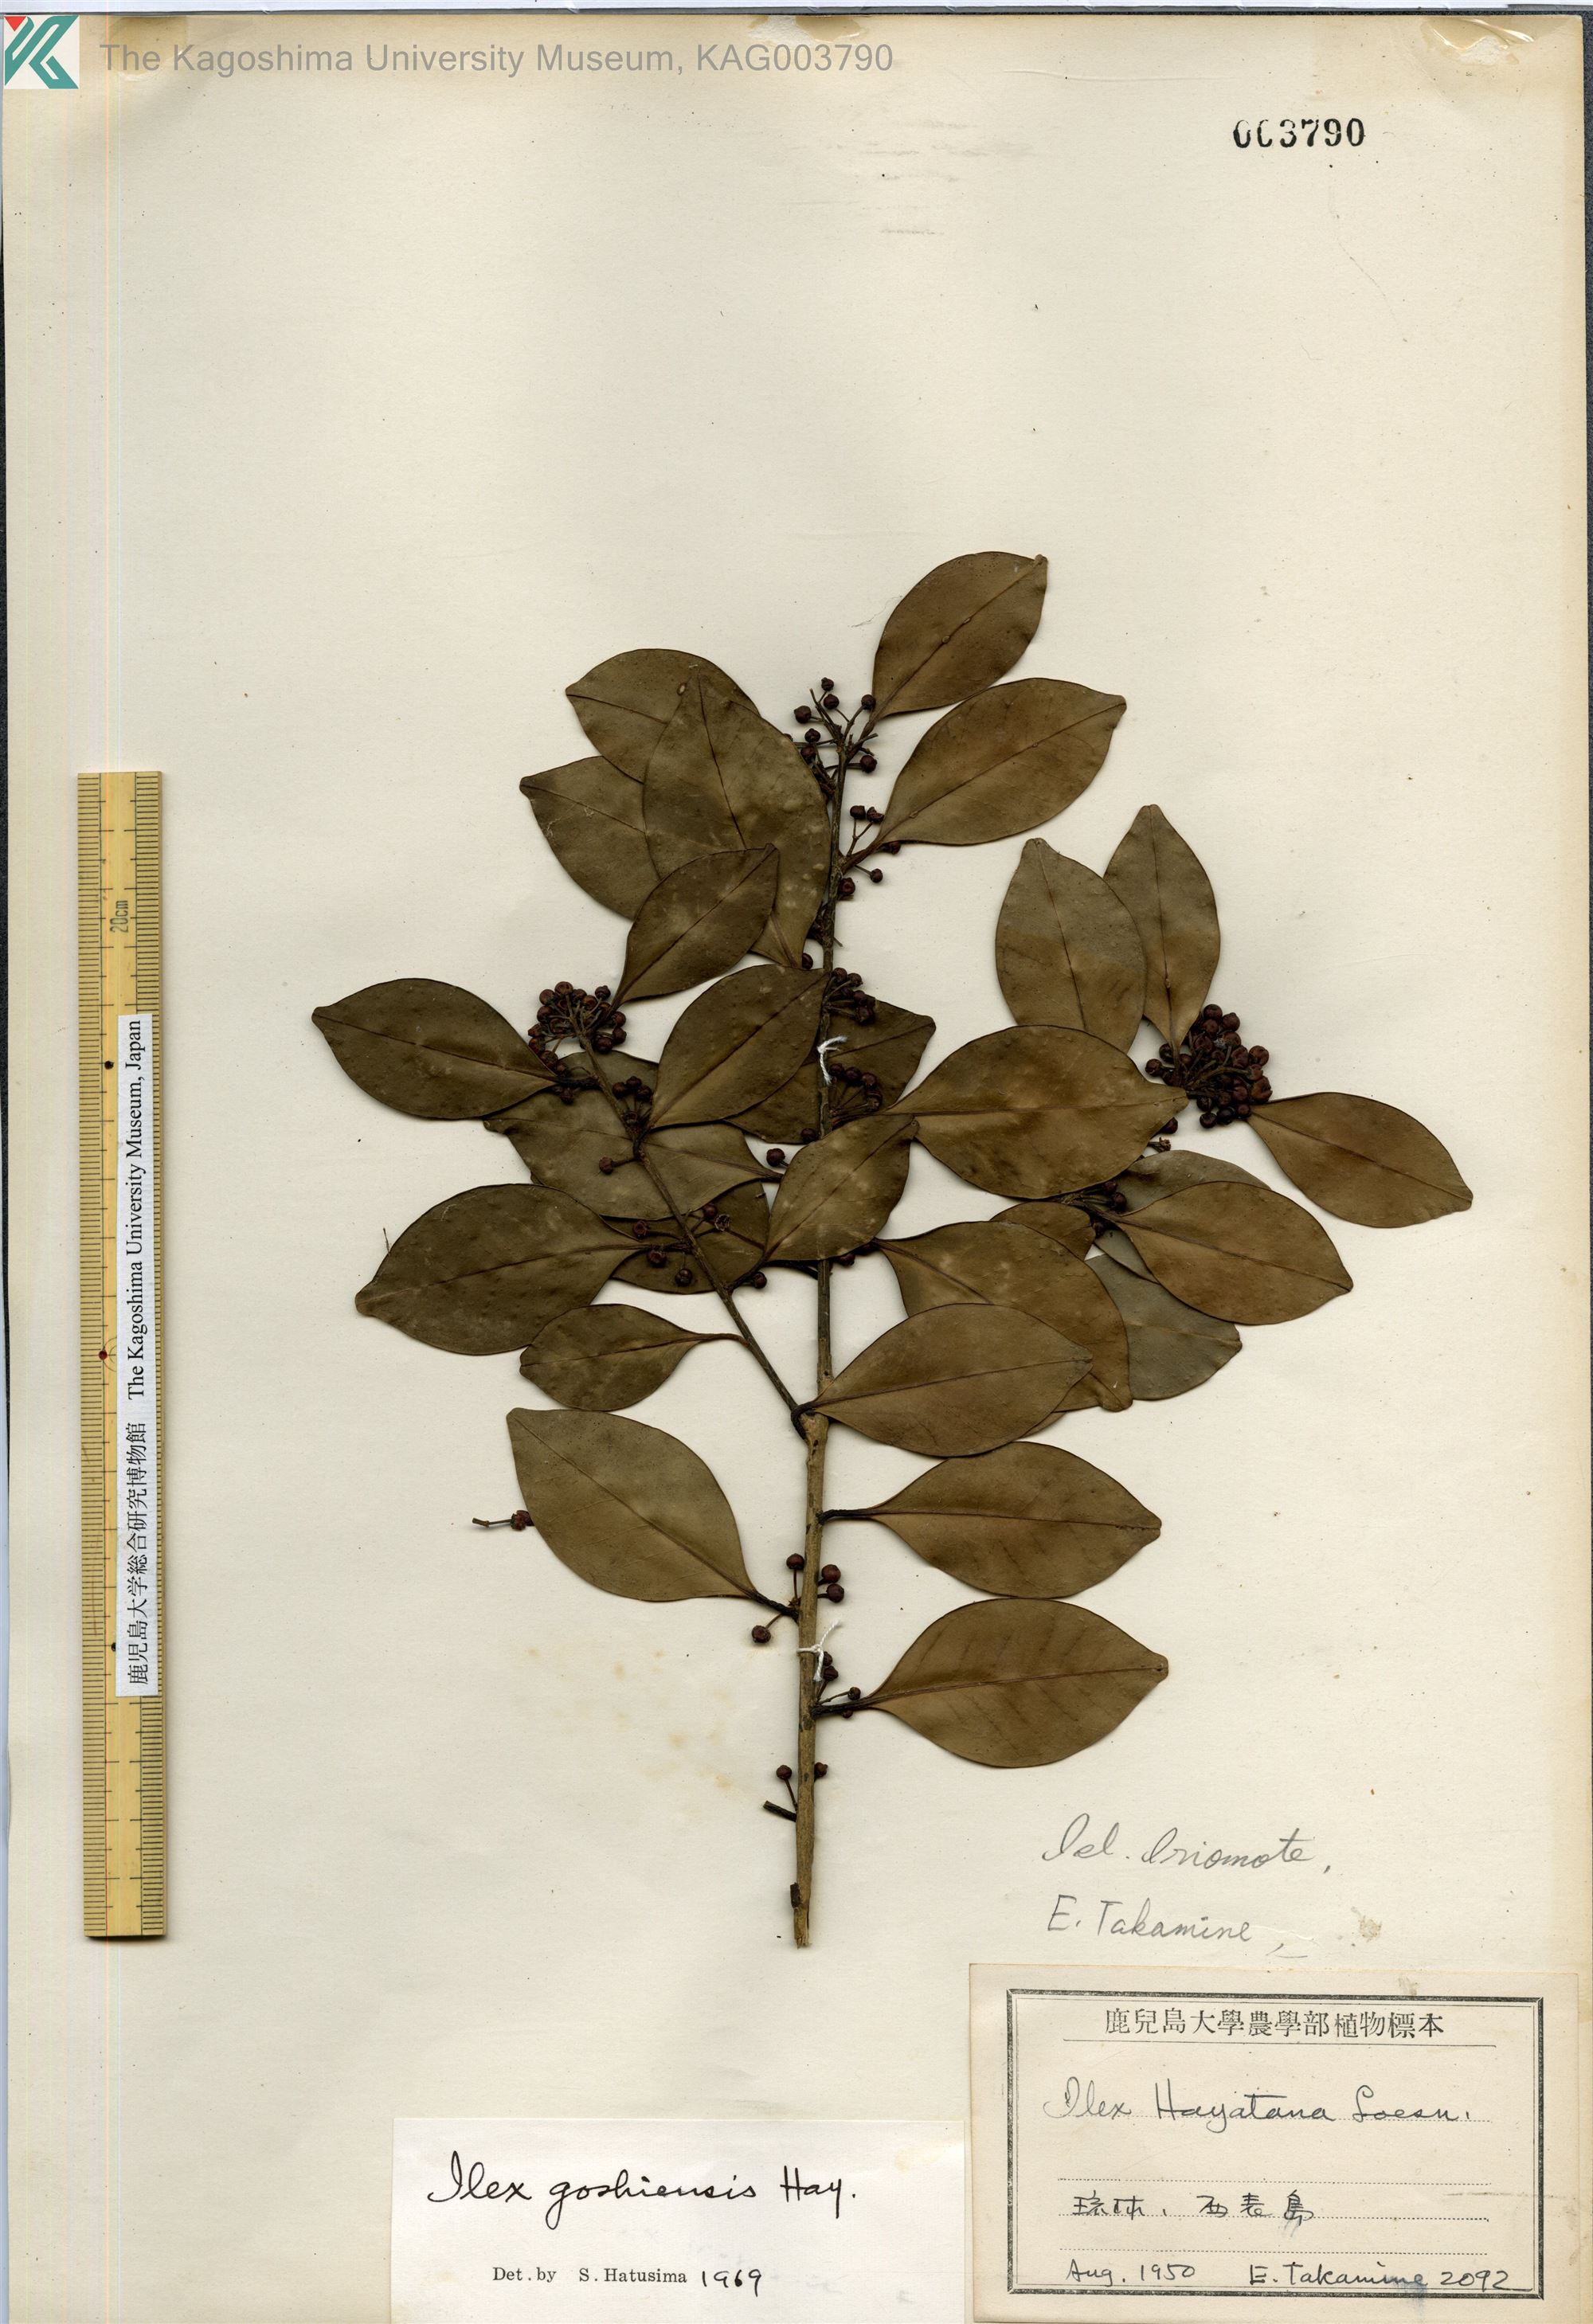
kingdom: Plantae
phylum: Tracheophyta
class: Magnoliopsida
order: Aquifoliales
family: Aquifoliaceae
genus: Ilex
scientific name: Ilex goshiensis
